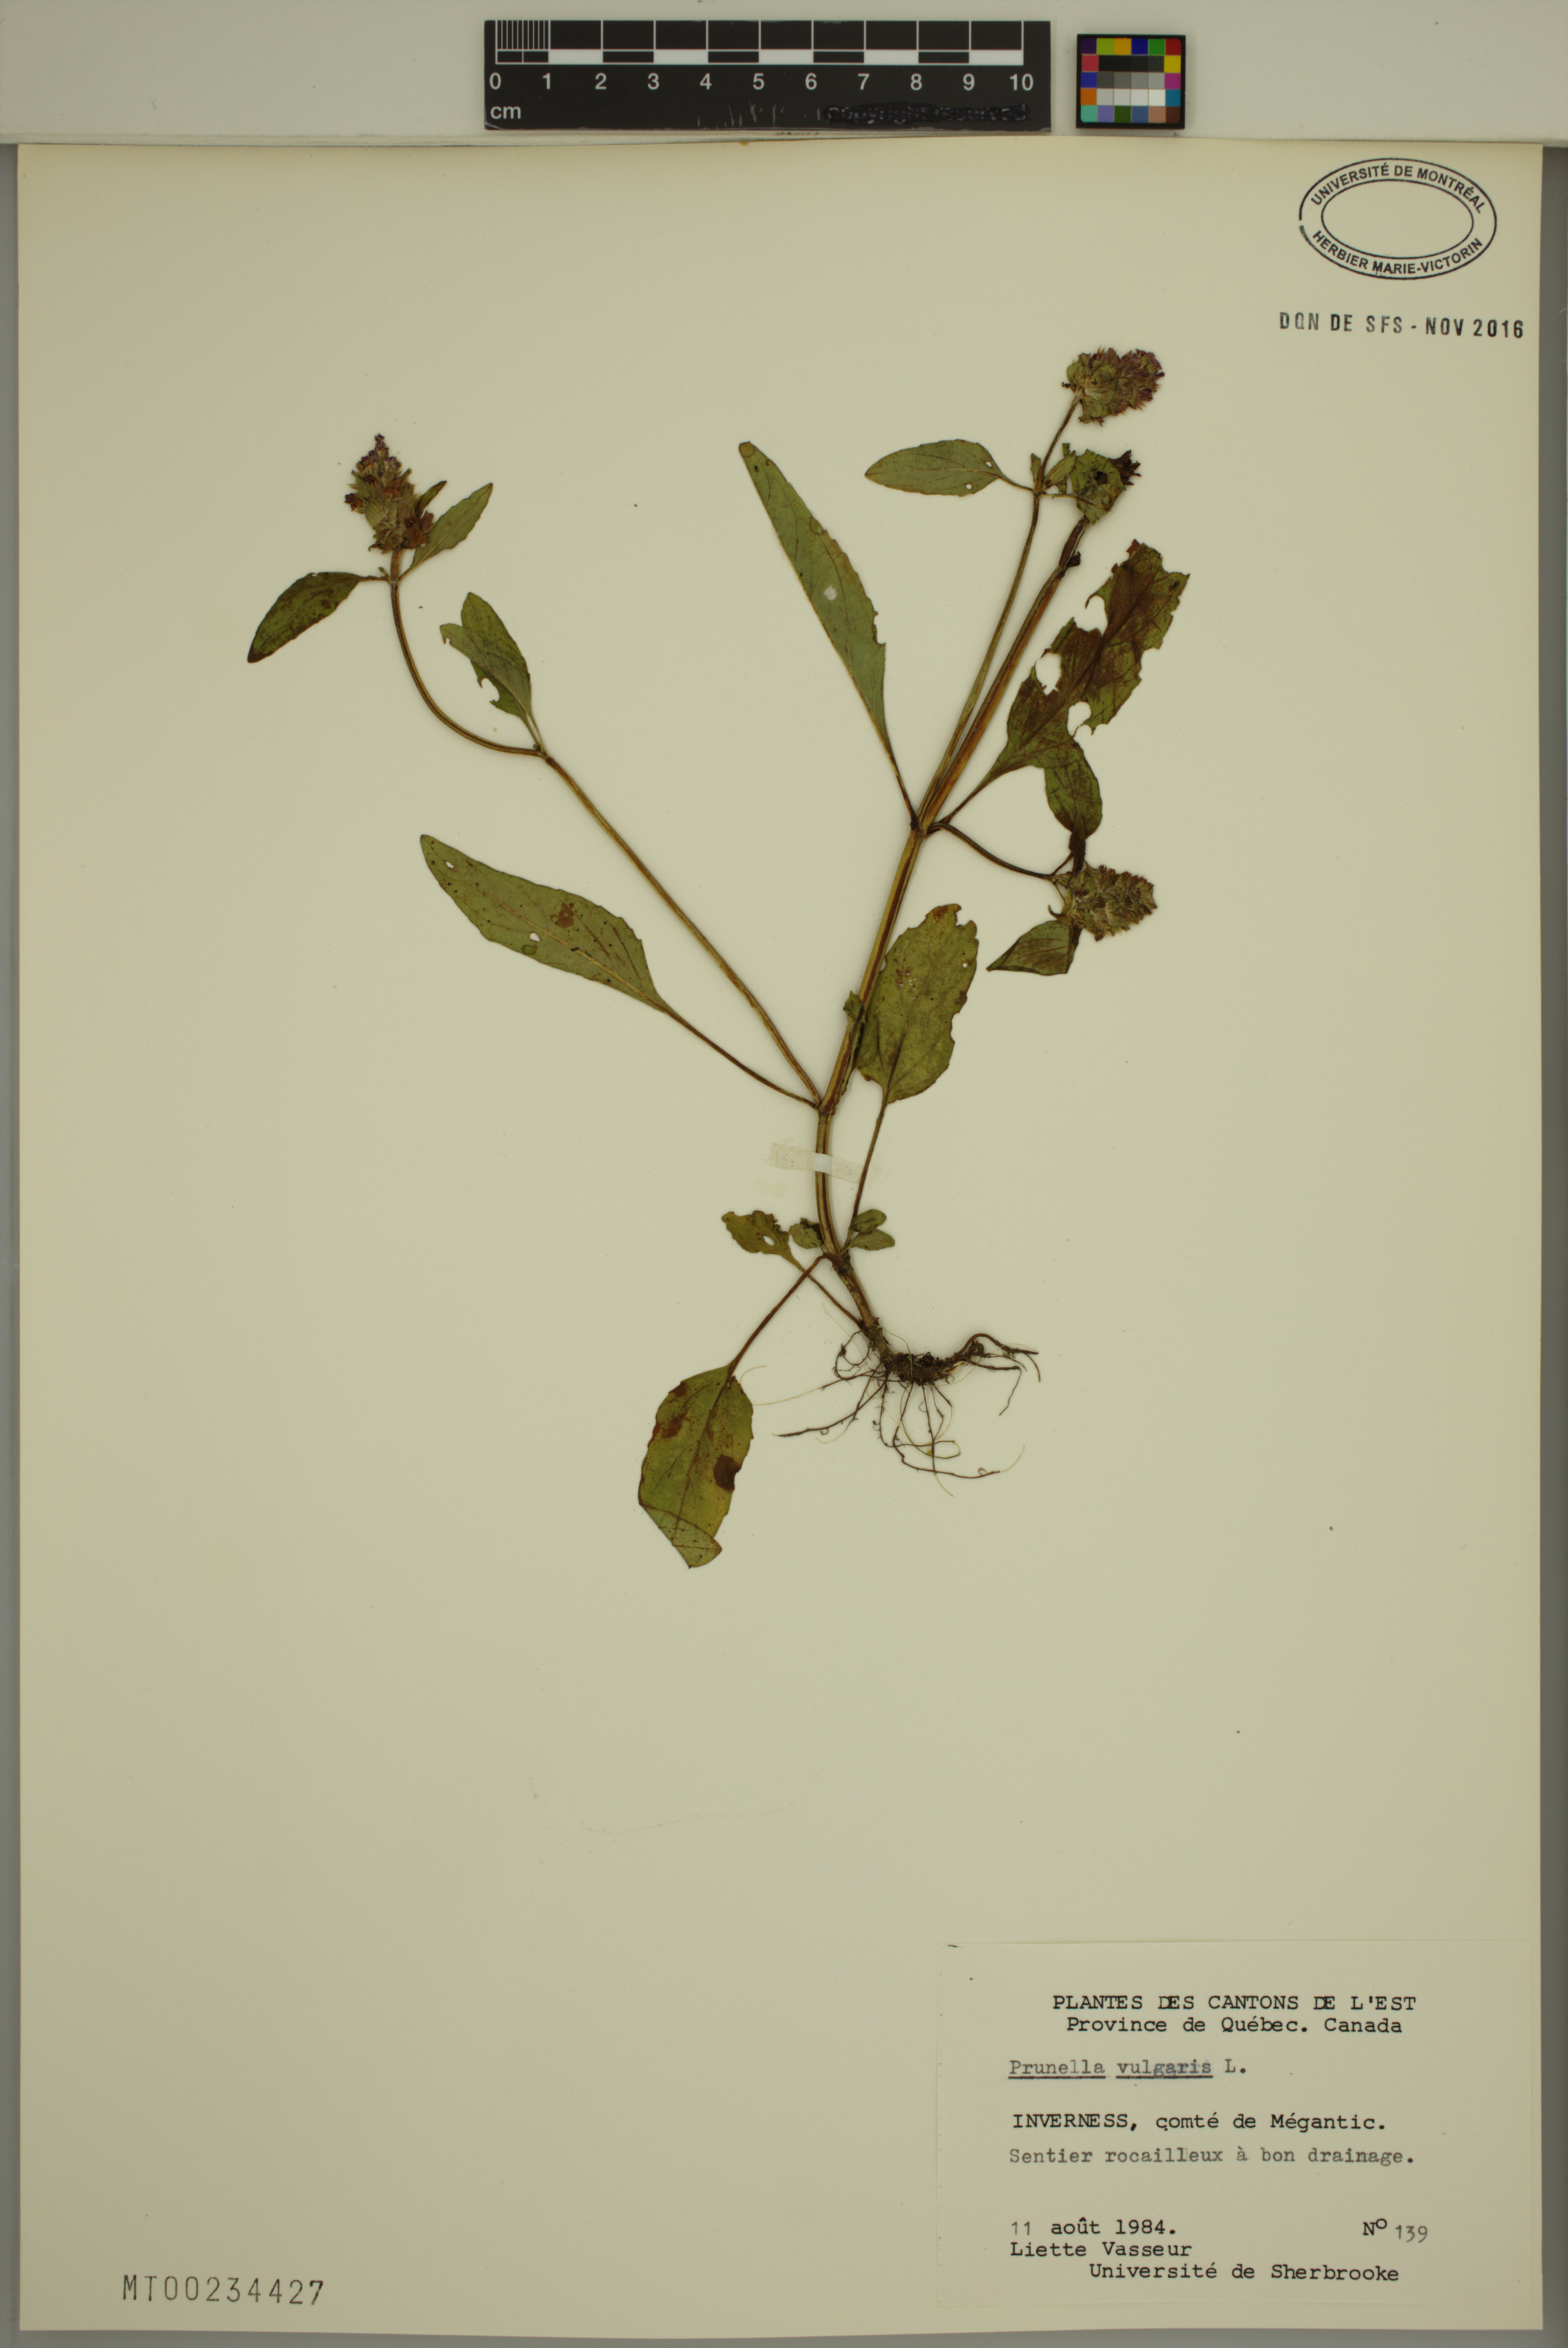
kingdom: Plantae
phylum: Tracheophyta
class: Magnoliopsida
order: Lamiales
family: Lamiaceae
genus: Prunella
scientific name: Prunella vulgaris
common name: Heal-all
